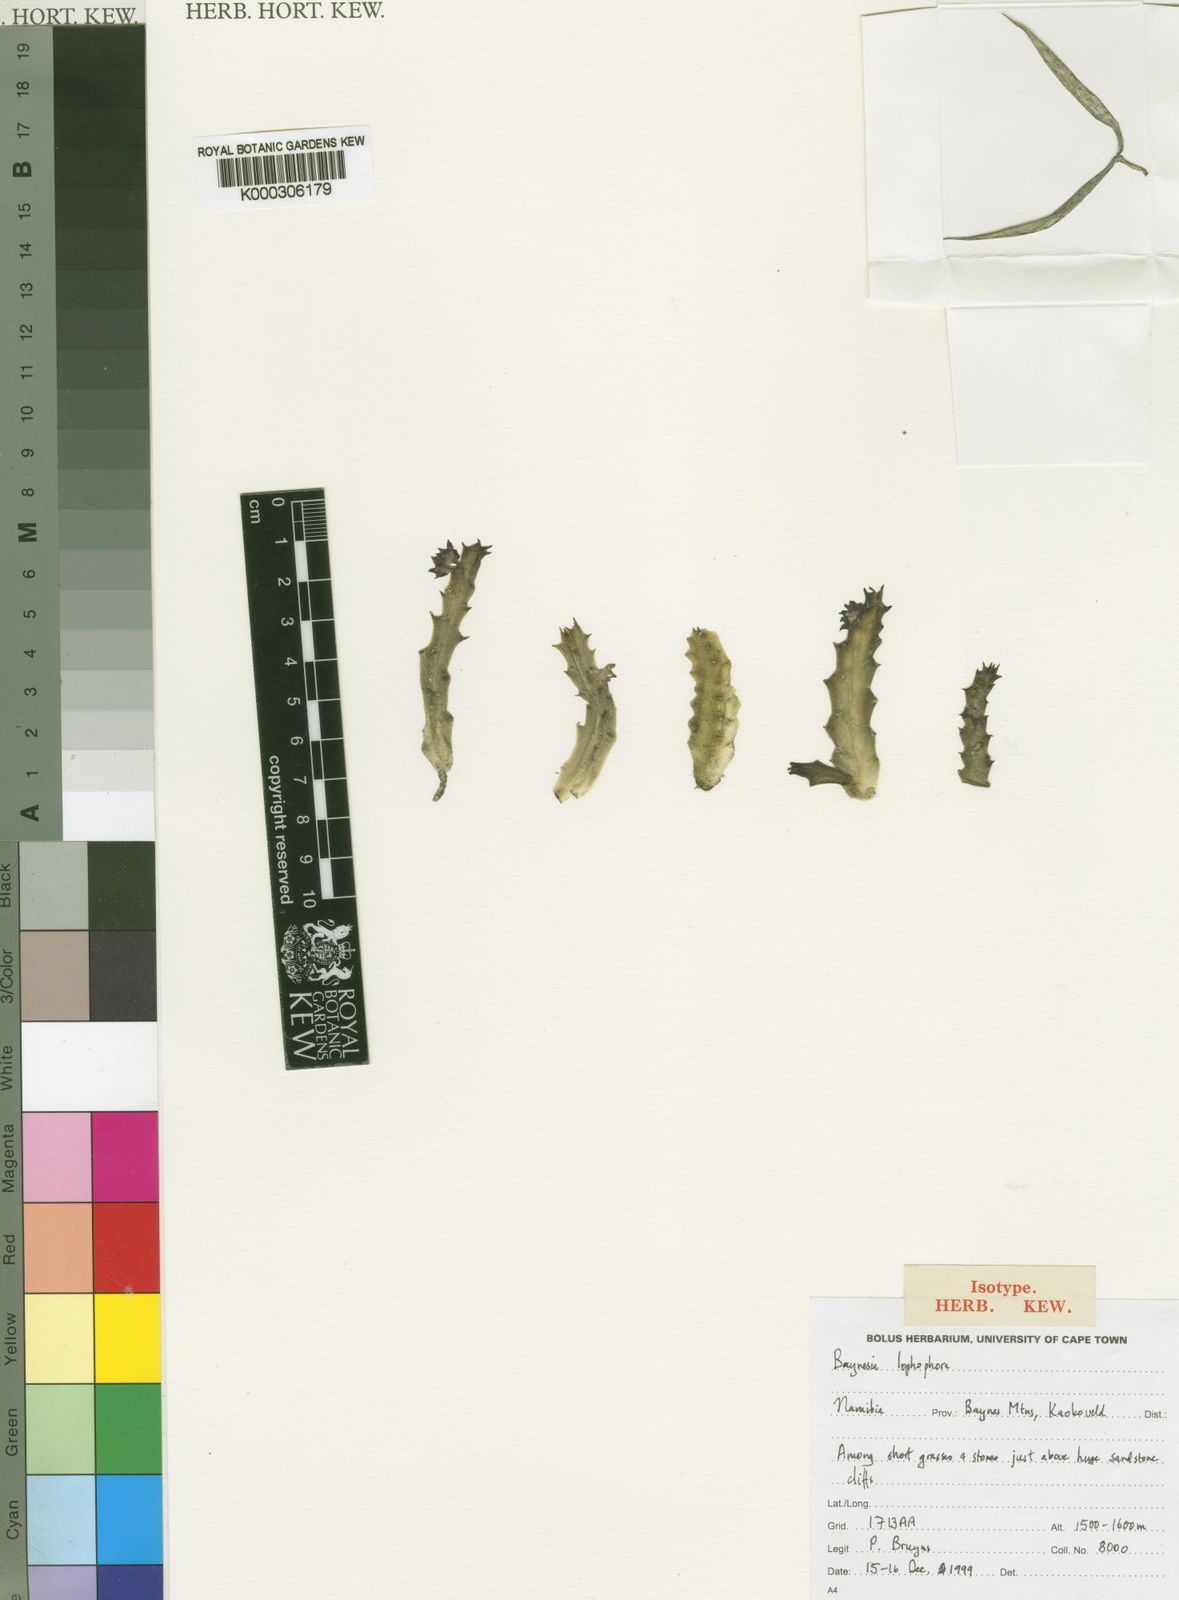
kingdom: Plantae
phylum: Tracheophyta
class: Magnoliopsida
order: Gentianales
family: Apocynaceae
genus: Ceropegia
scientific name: Ceropegia lophophora
